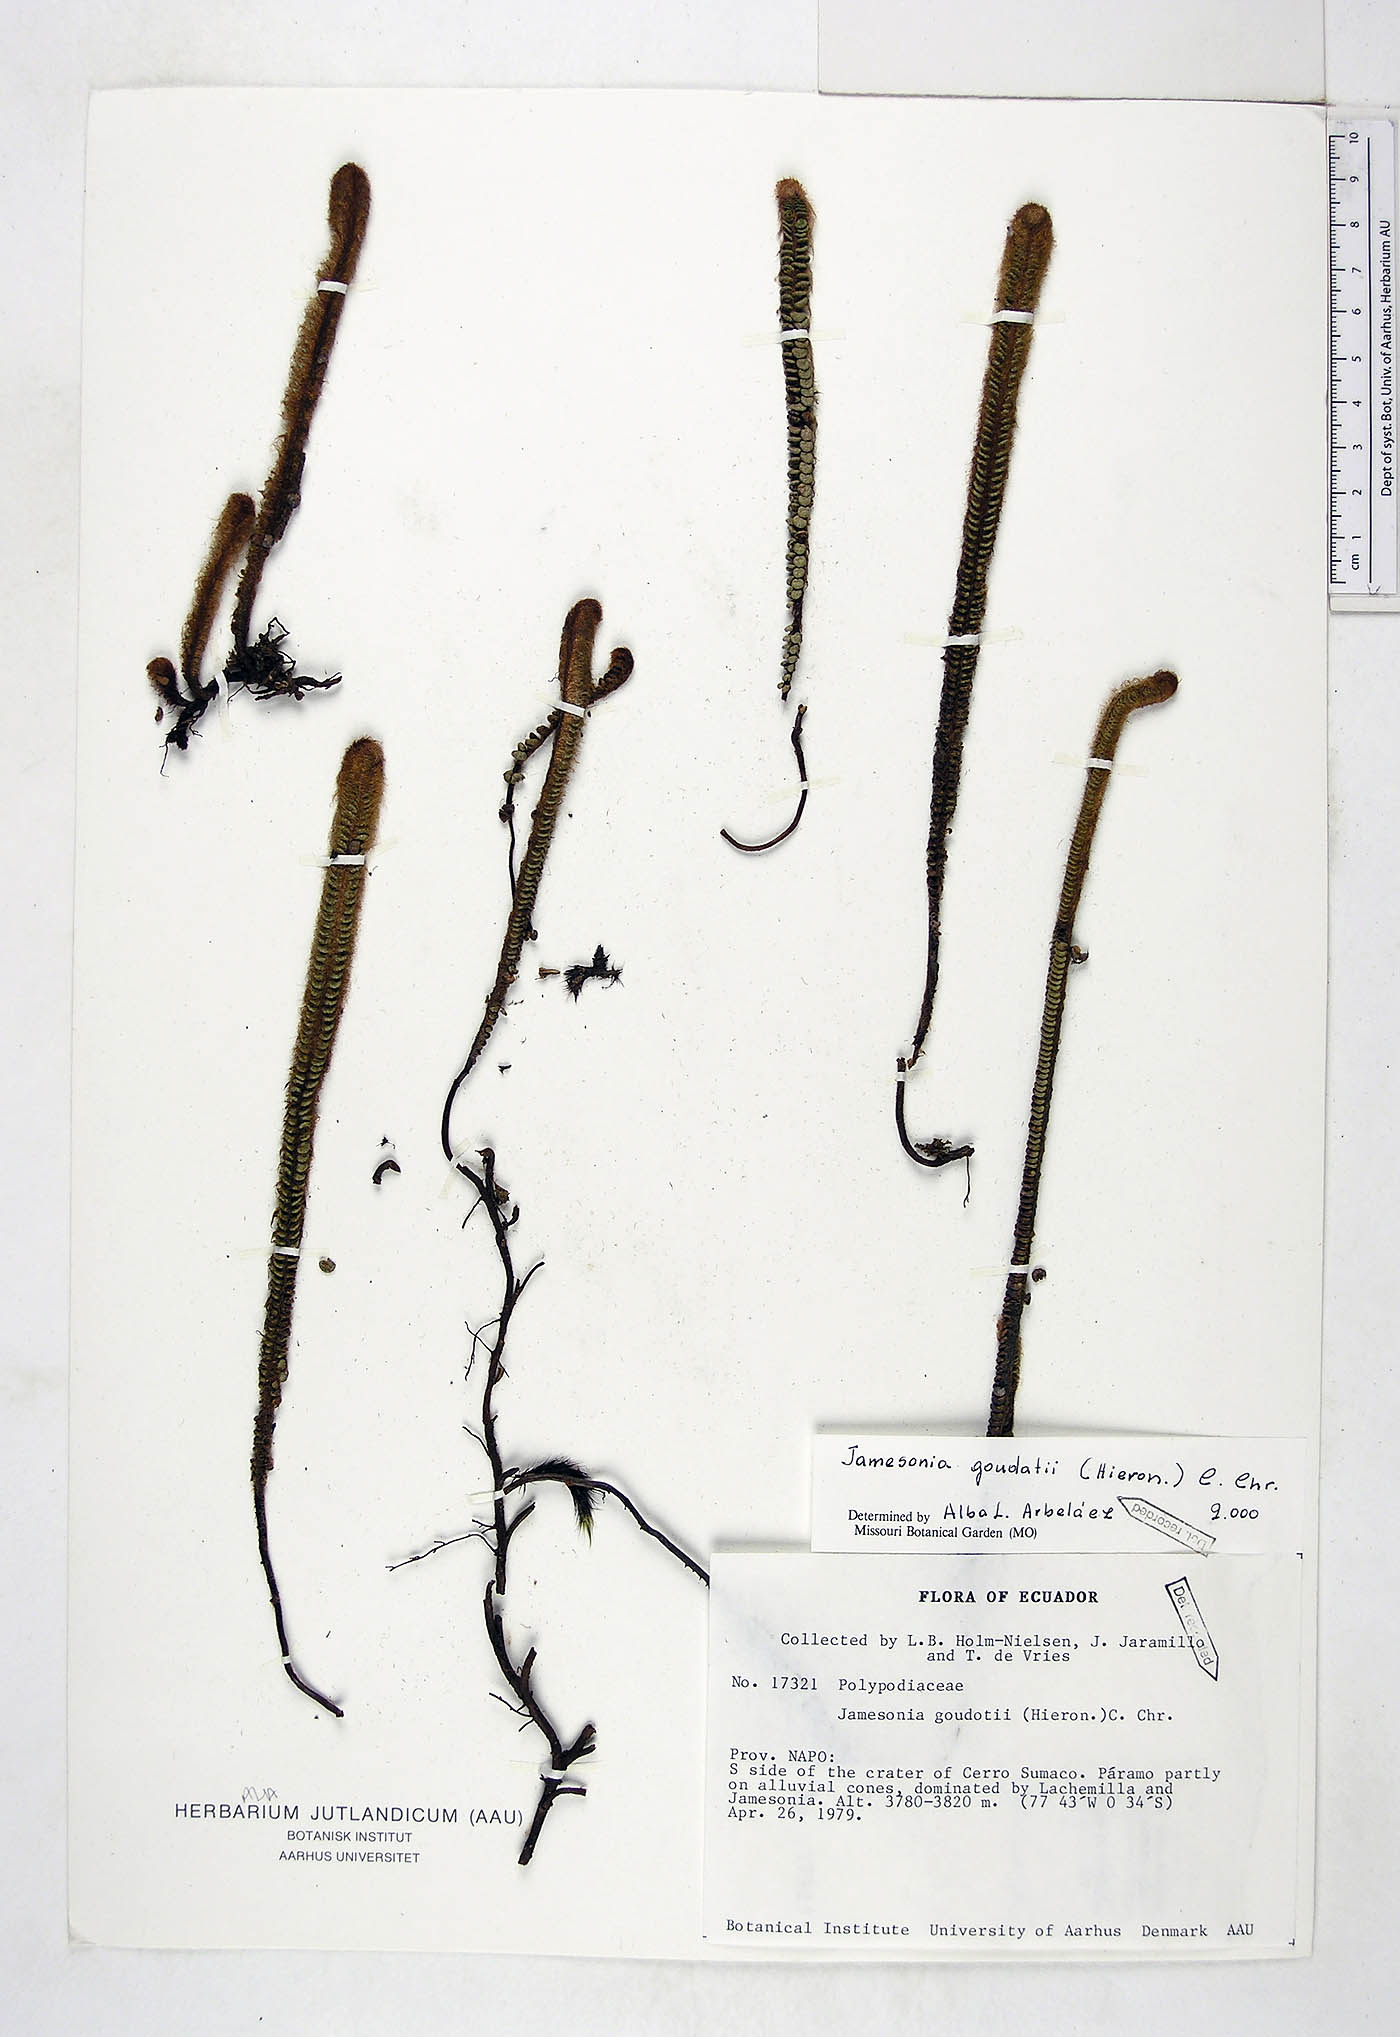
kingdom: Plantae
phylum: Tracheophyta
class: Polypodiopsida
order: Polypodiales
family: Pteridaceae
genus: Jamesonia
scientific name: Jamesonia goudotii
